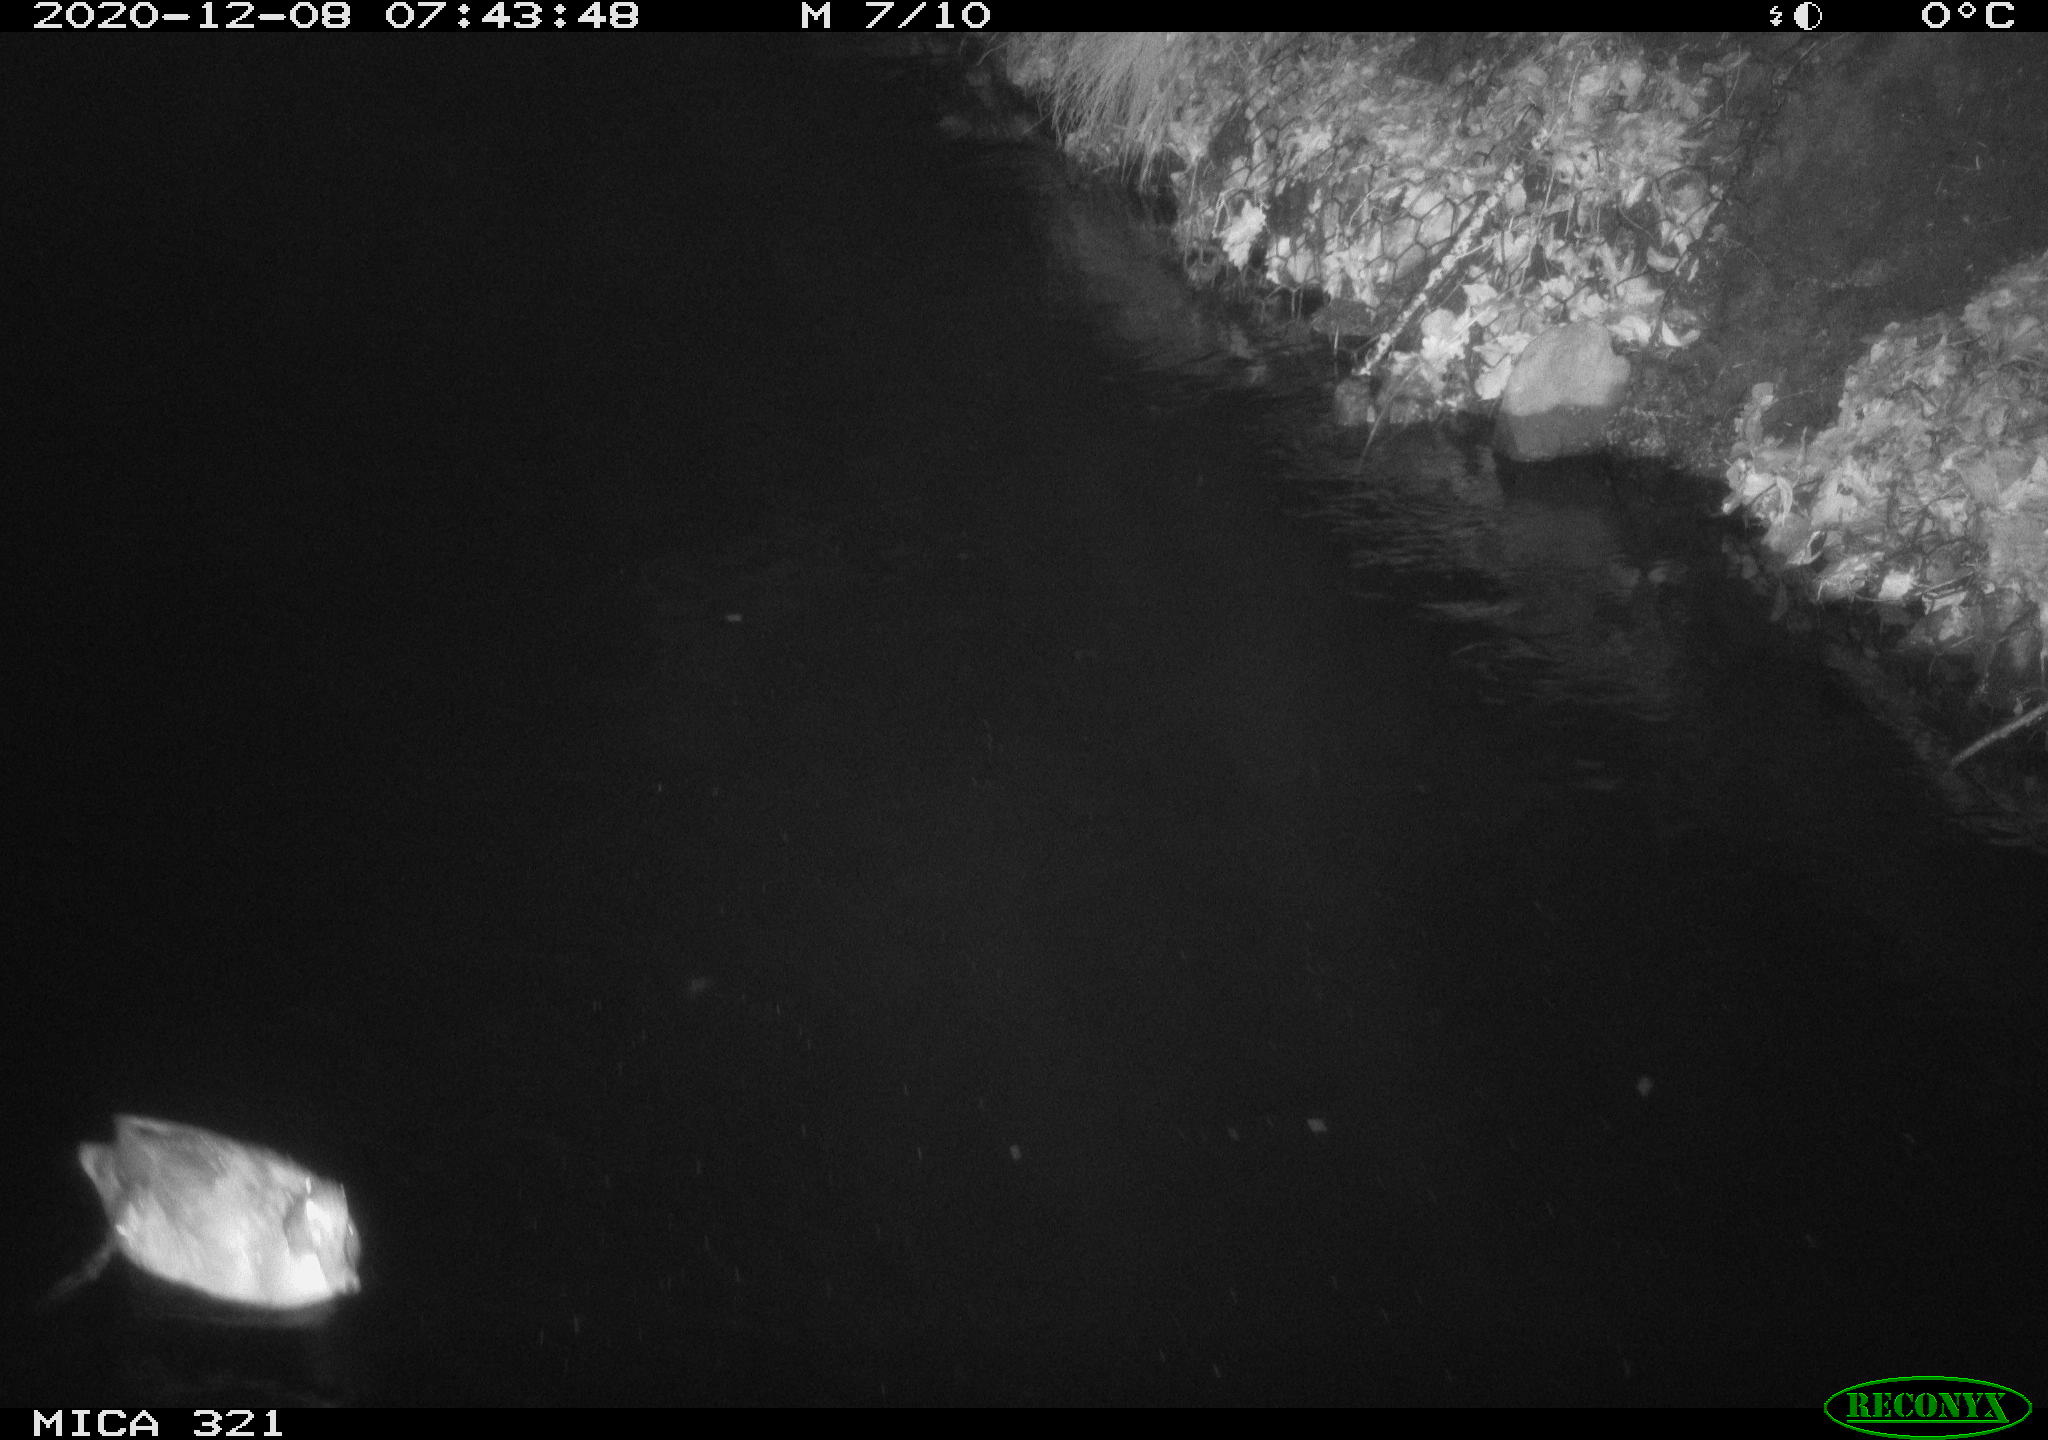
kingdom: Animalia
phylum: Chordata
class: Aves
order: Anseriformes
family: Anatidae
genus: Anas
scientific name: Anas platyrhynchos
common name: Mallard
